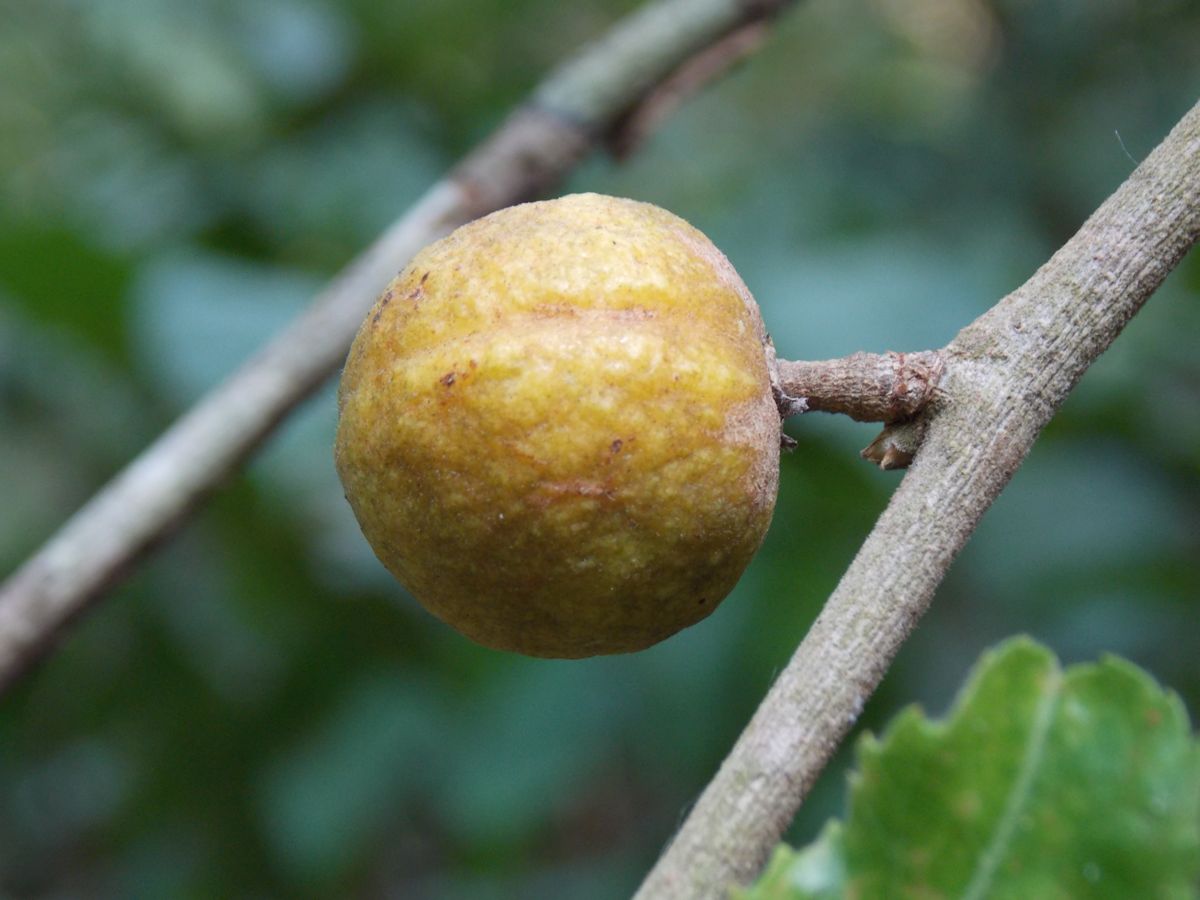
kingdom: Plantae
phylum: Tracheophyta
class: Magnoliopsida
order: Malpighiales
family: Salicaceae
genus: Casearia
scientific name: Casearia arguta
